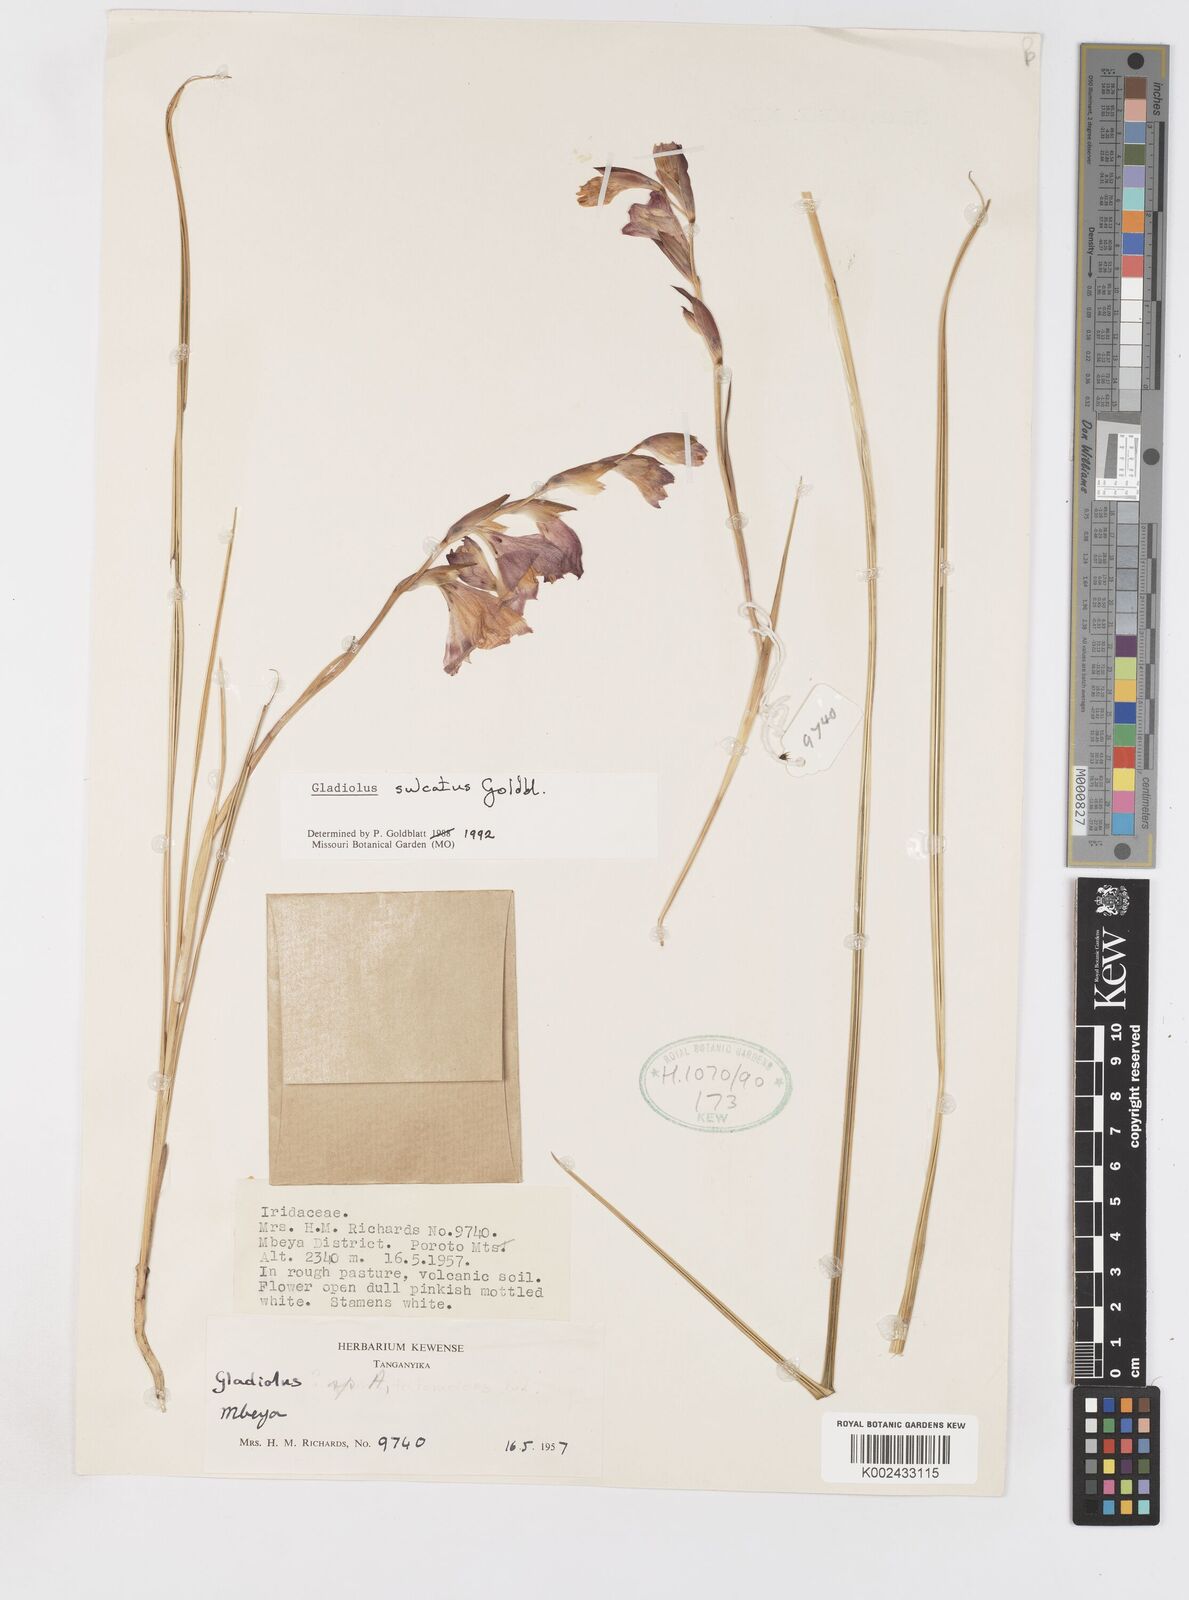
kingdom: Plantae
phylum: Tracheophyta
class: Liliopsida
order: Asparagales
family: Iridaceae
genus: Gladiolus
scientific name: Gladiolus sulculatus
